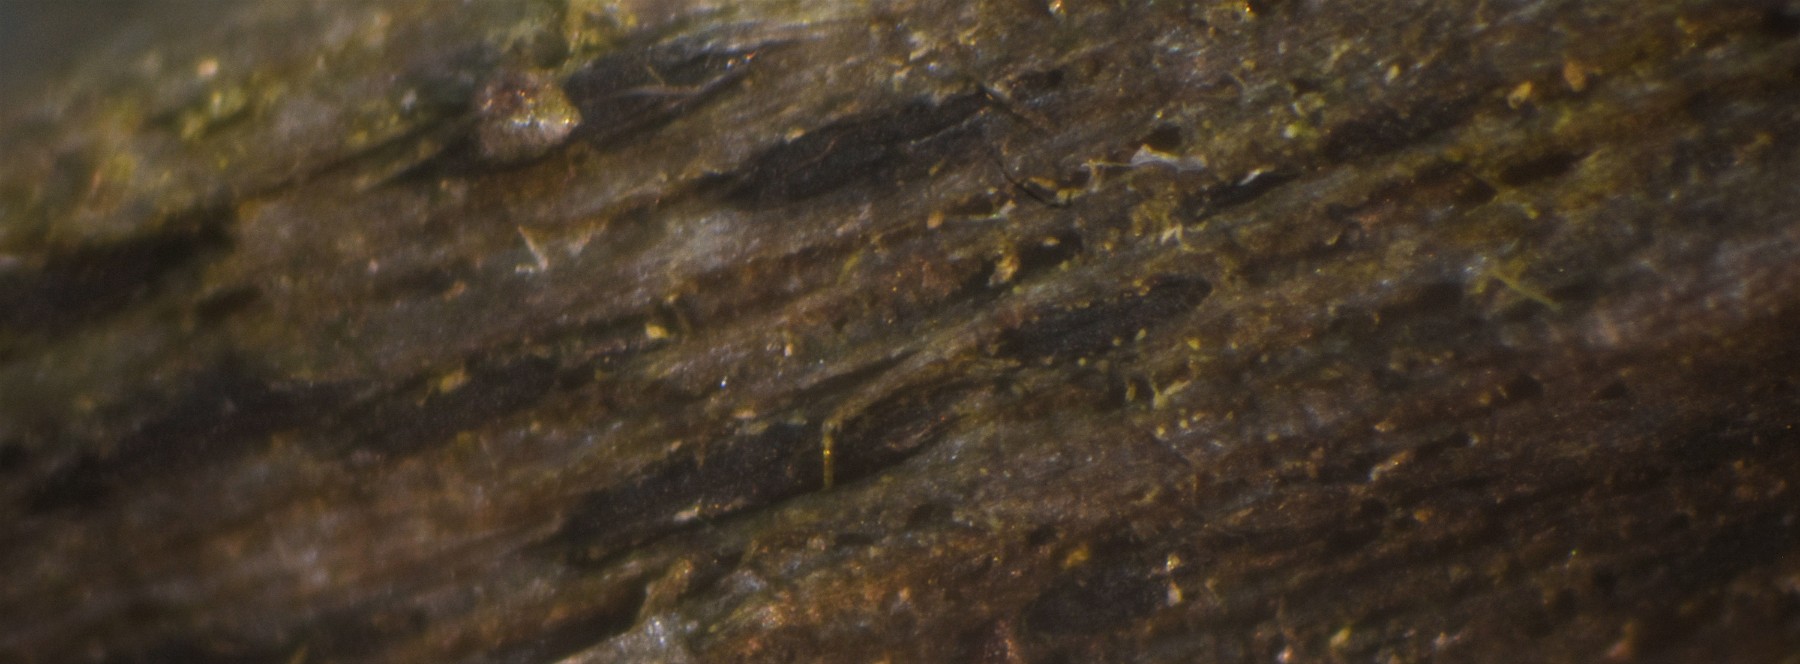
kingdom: Fungi
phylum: Ascomycota
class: Dothideomycetes
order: Mytilinidiales
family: Gloniaceae
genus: Glonium
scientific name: Glonium lineare
